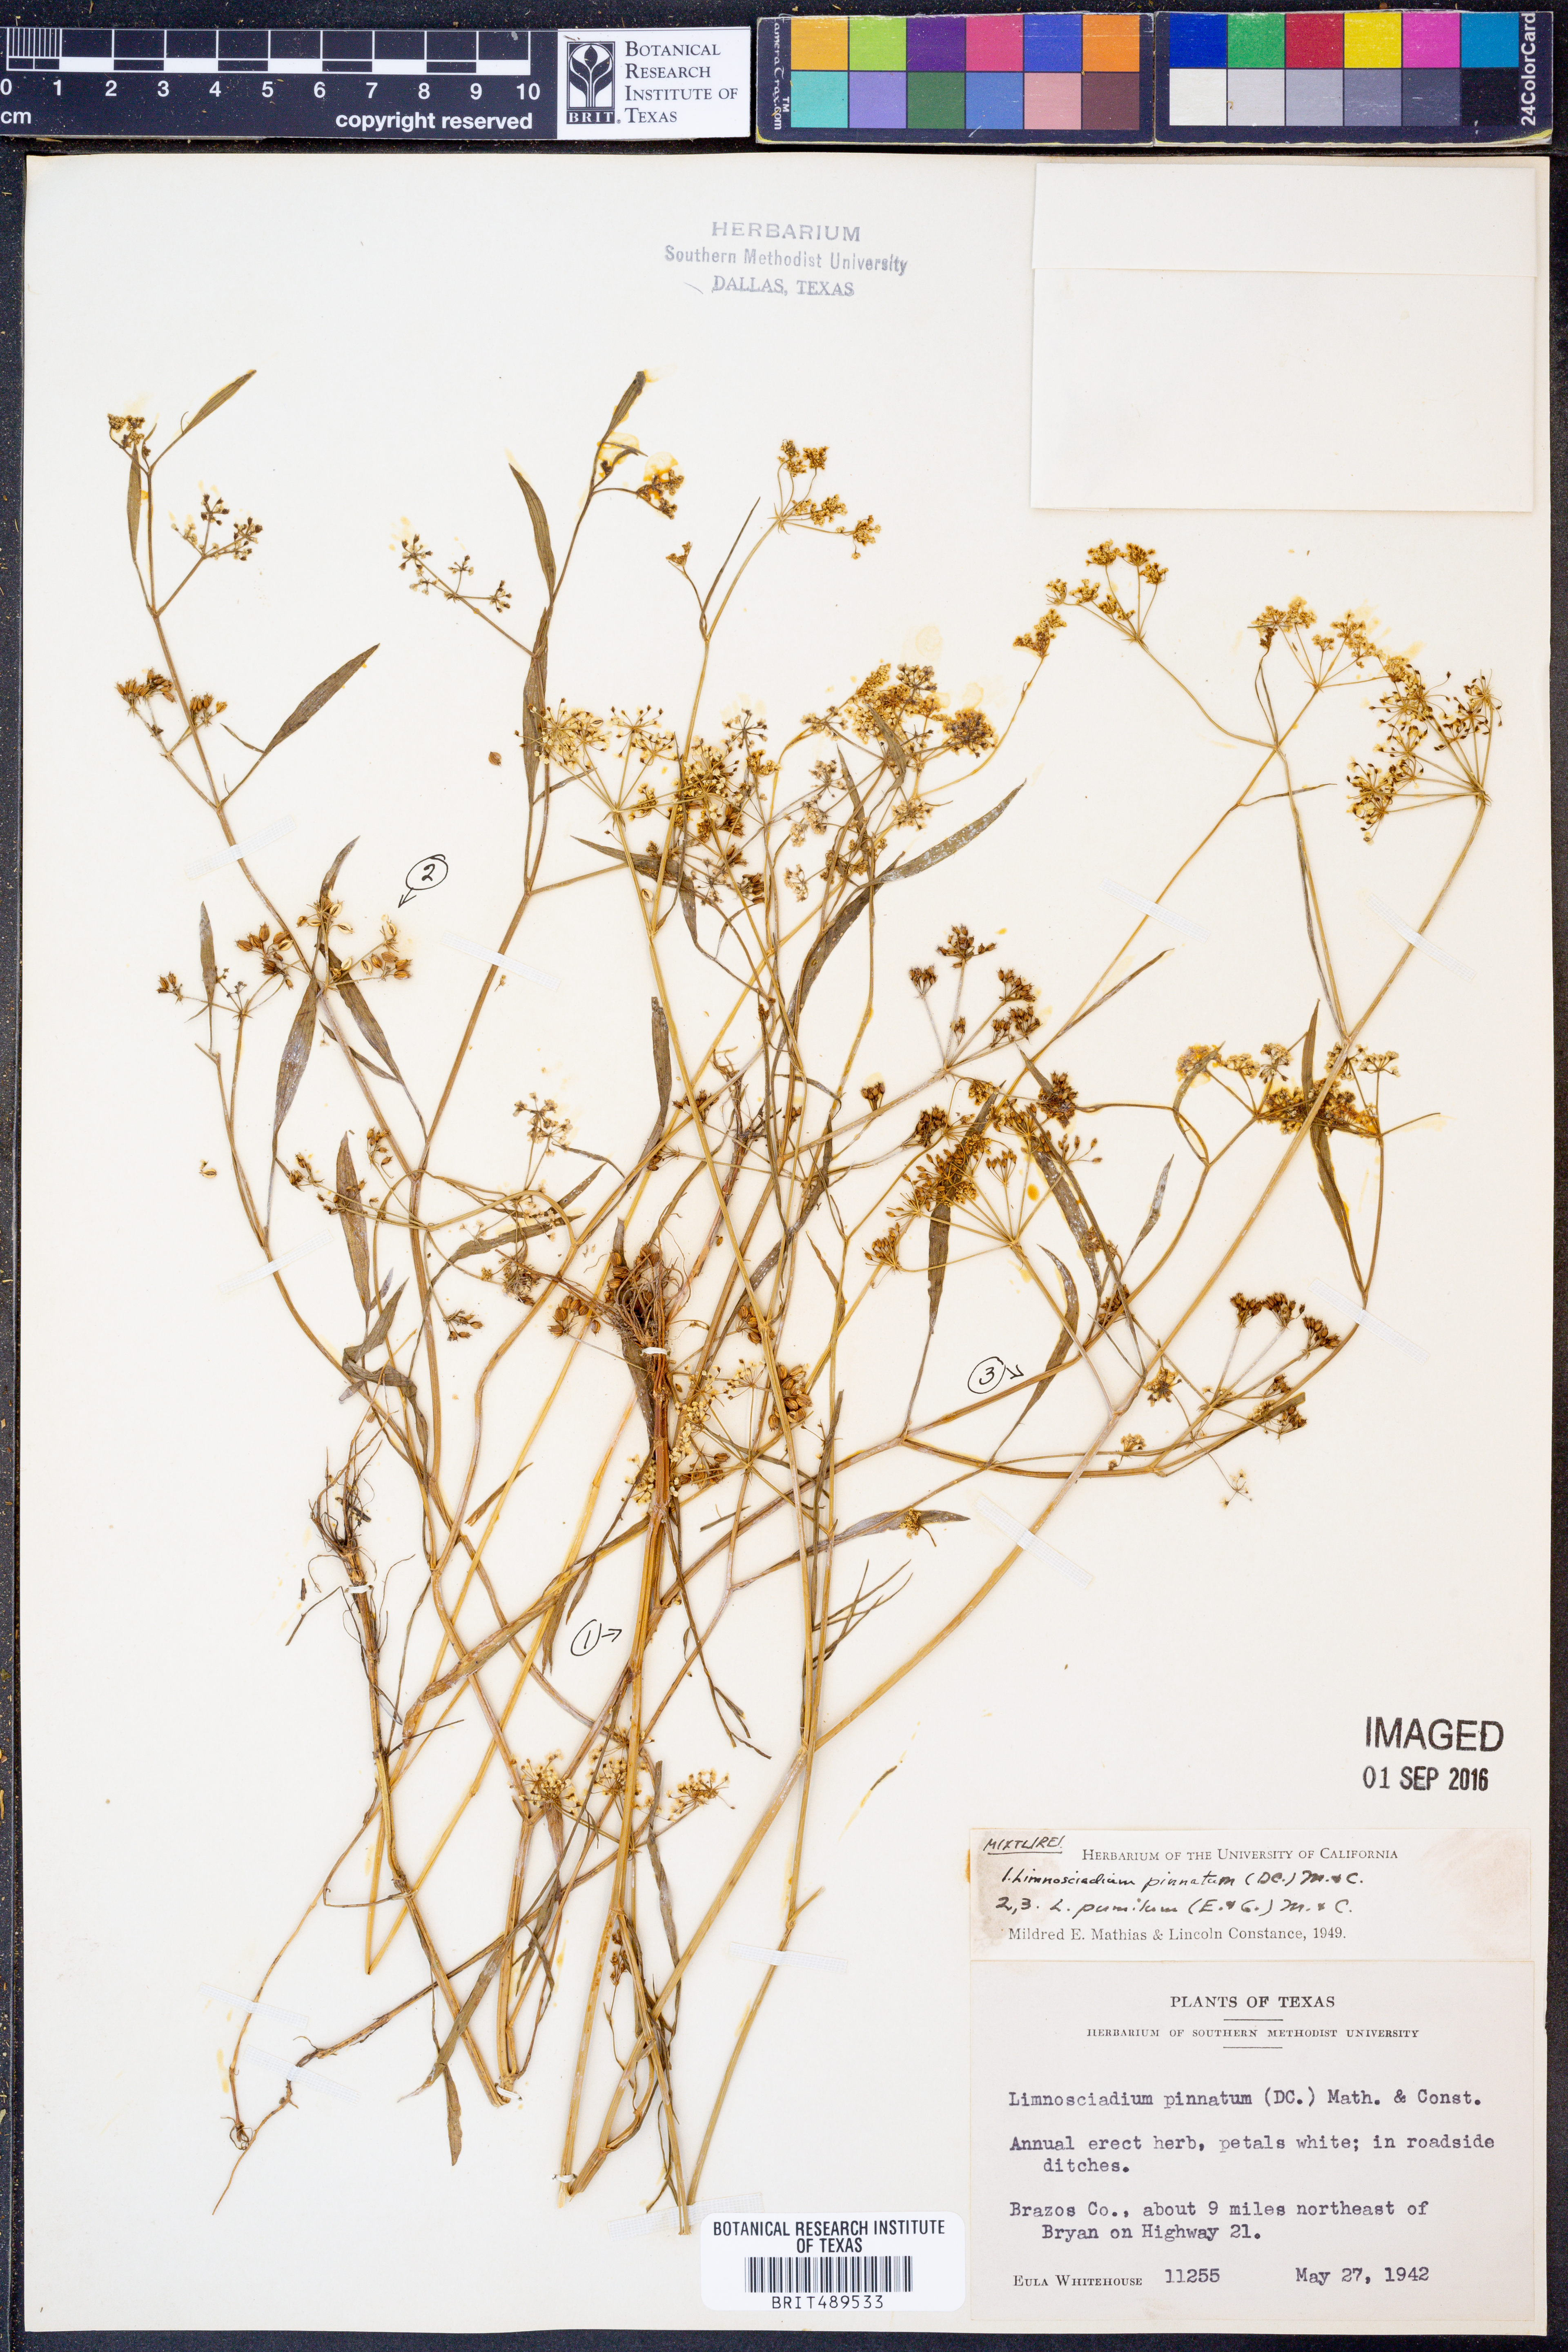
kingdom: Plantae
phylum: Tracheophyta
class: Magnoliopsida
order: Apiales
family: Apiaceae
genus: Limnosciadium
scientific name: Limnosciadium pinnatum
